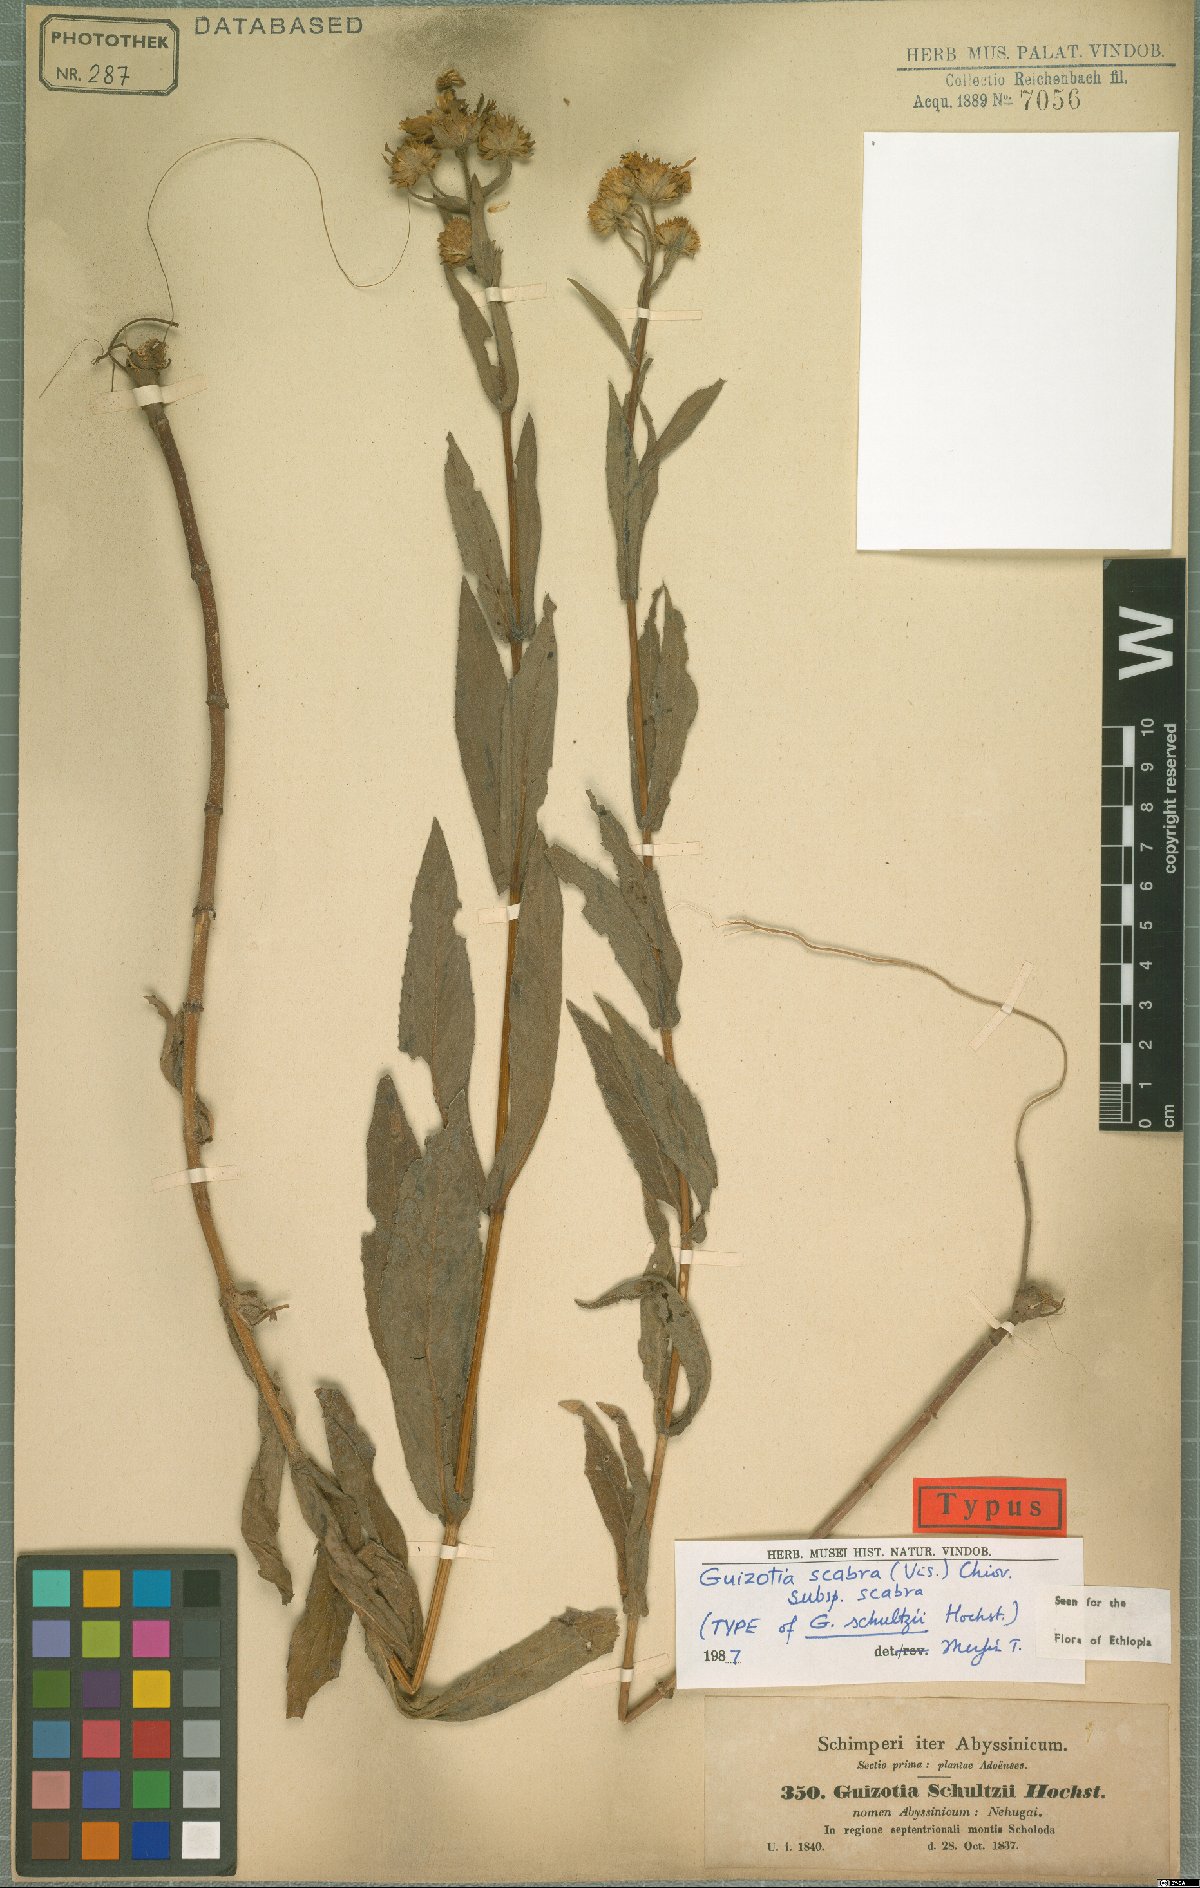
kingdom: Plantae
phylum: Tracheophyta
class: Magnoliopsida
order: Asterales
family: Asteraceae
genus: Guizotia
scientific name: Guizotia scabra
